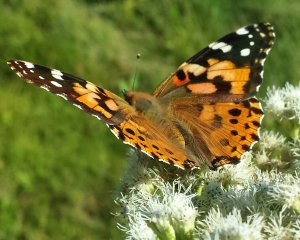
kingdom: Animalia
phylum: Arthropoda
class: Insecta
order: Lepidoptera
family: Nymphalidae
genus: Vanessa
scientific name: Vanessa cardui
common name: Painted Lady
